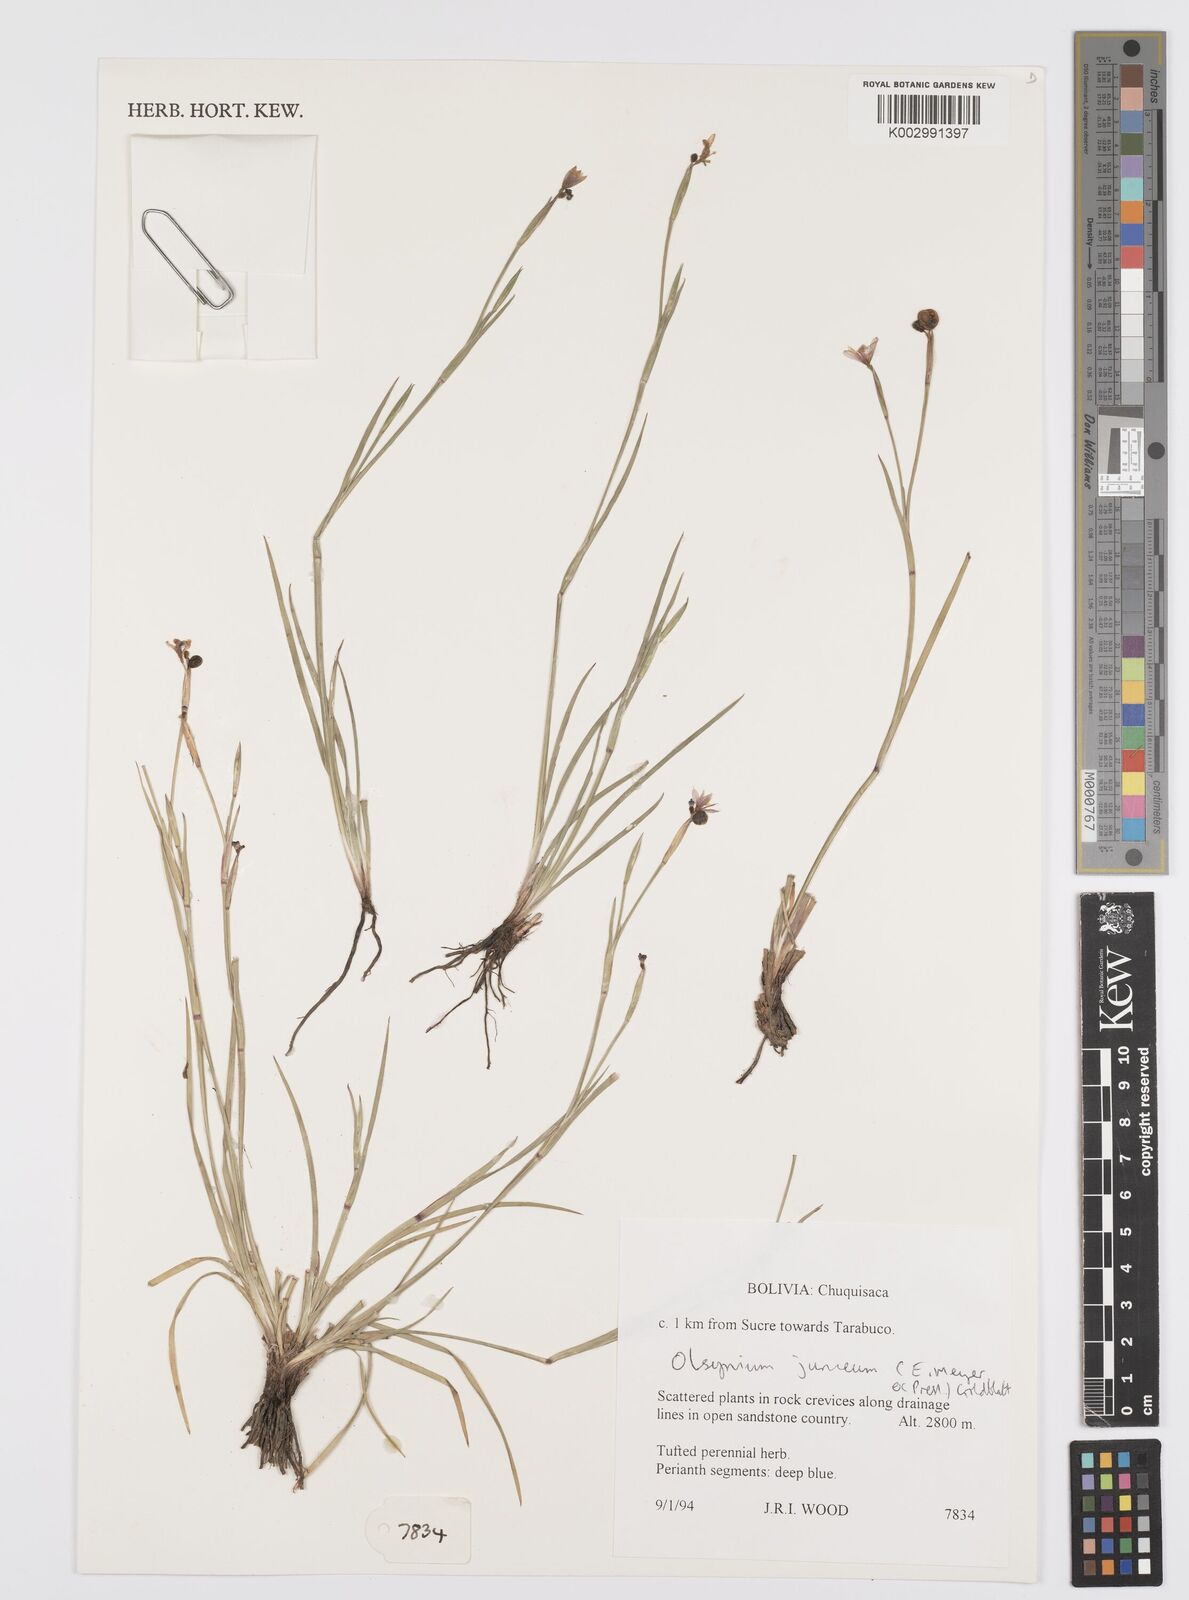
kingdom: Plantae
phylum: Tracheophyta
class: Liliopsida
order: Asparagales
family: Iridaceae
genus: Olsynium
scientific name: Olsynium junceum
